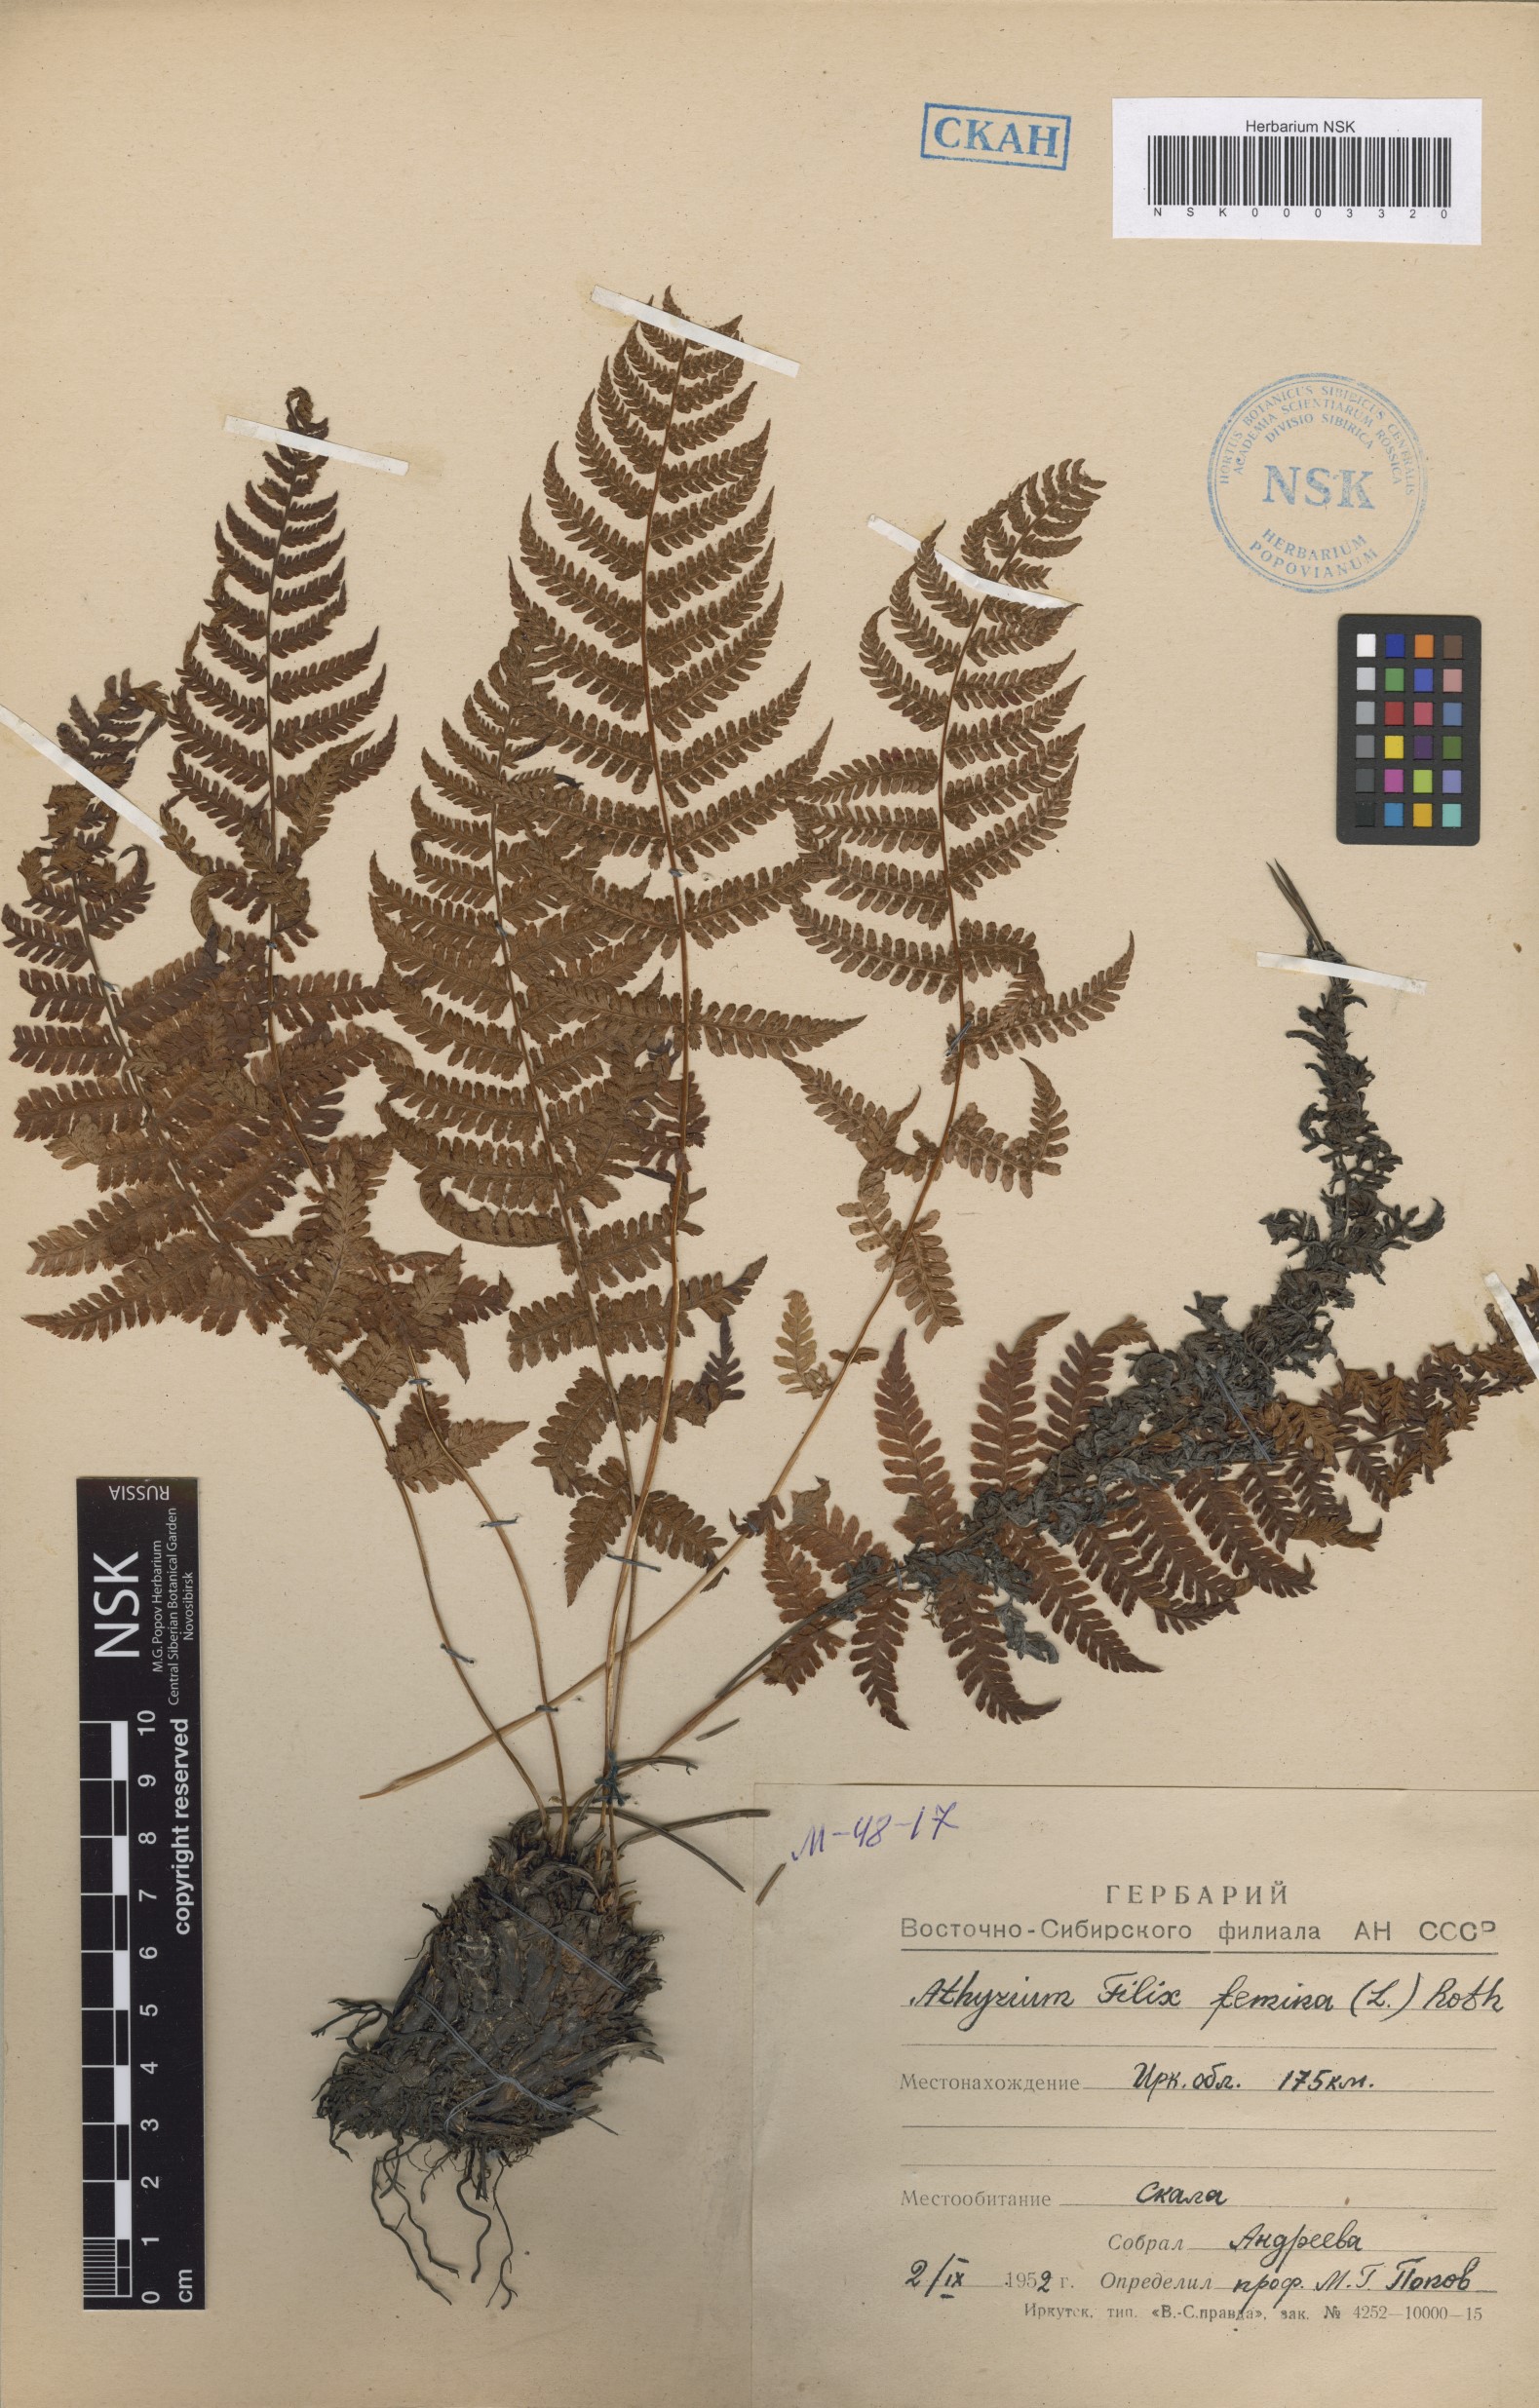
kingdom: Plantae
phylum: Tracheophyta
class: Polypodiopsida
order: Polypodiales
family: Athyriaceae
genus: Athyrium
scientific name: Athyrium filix-femina
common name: Lady fern
